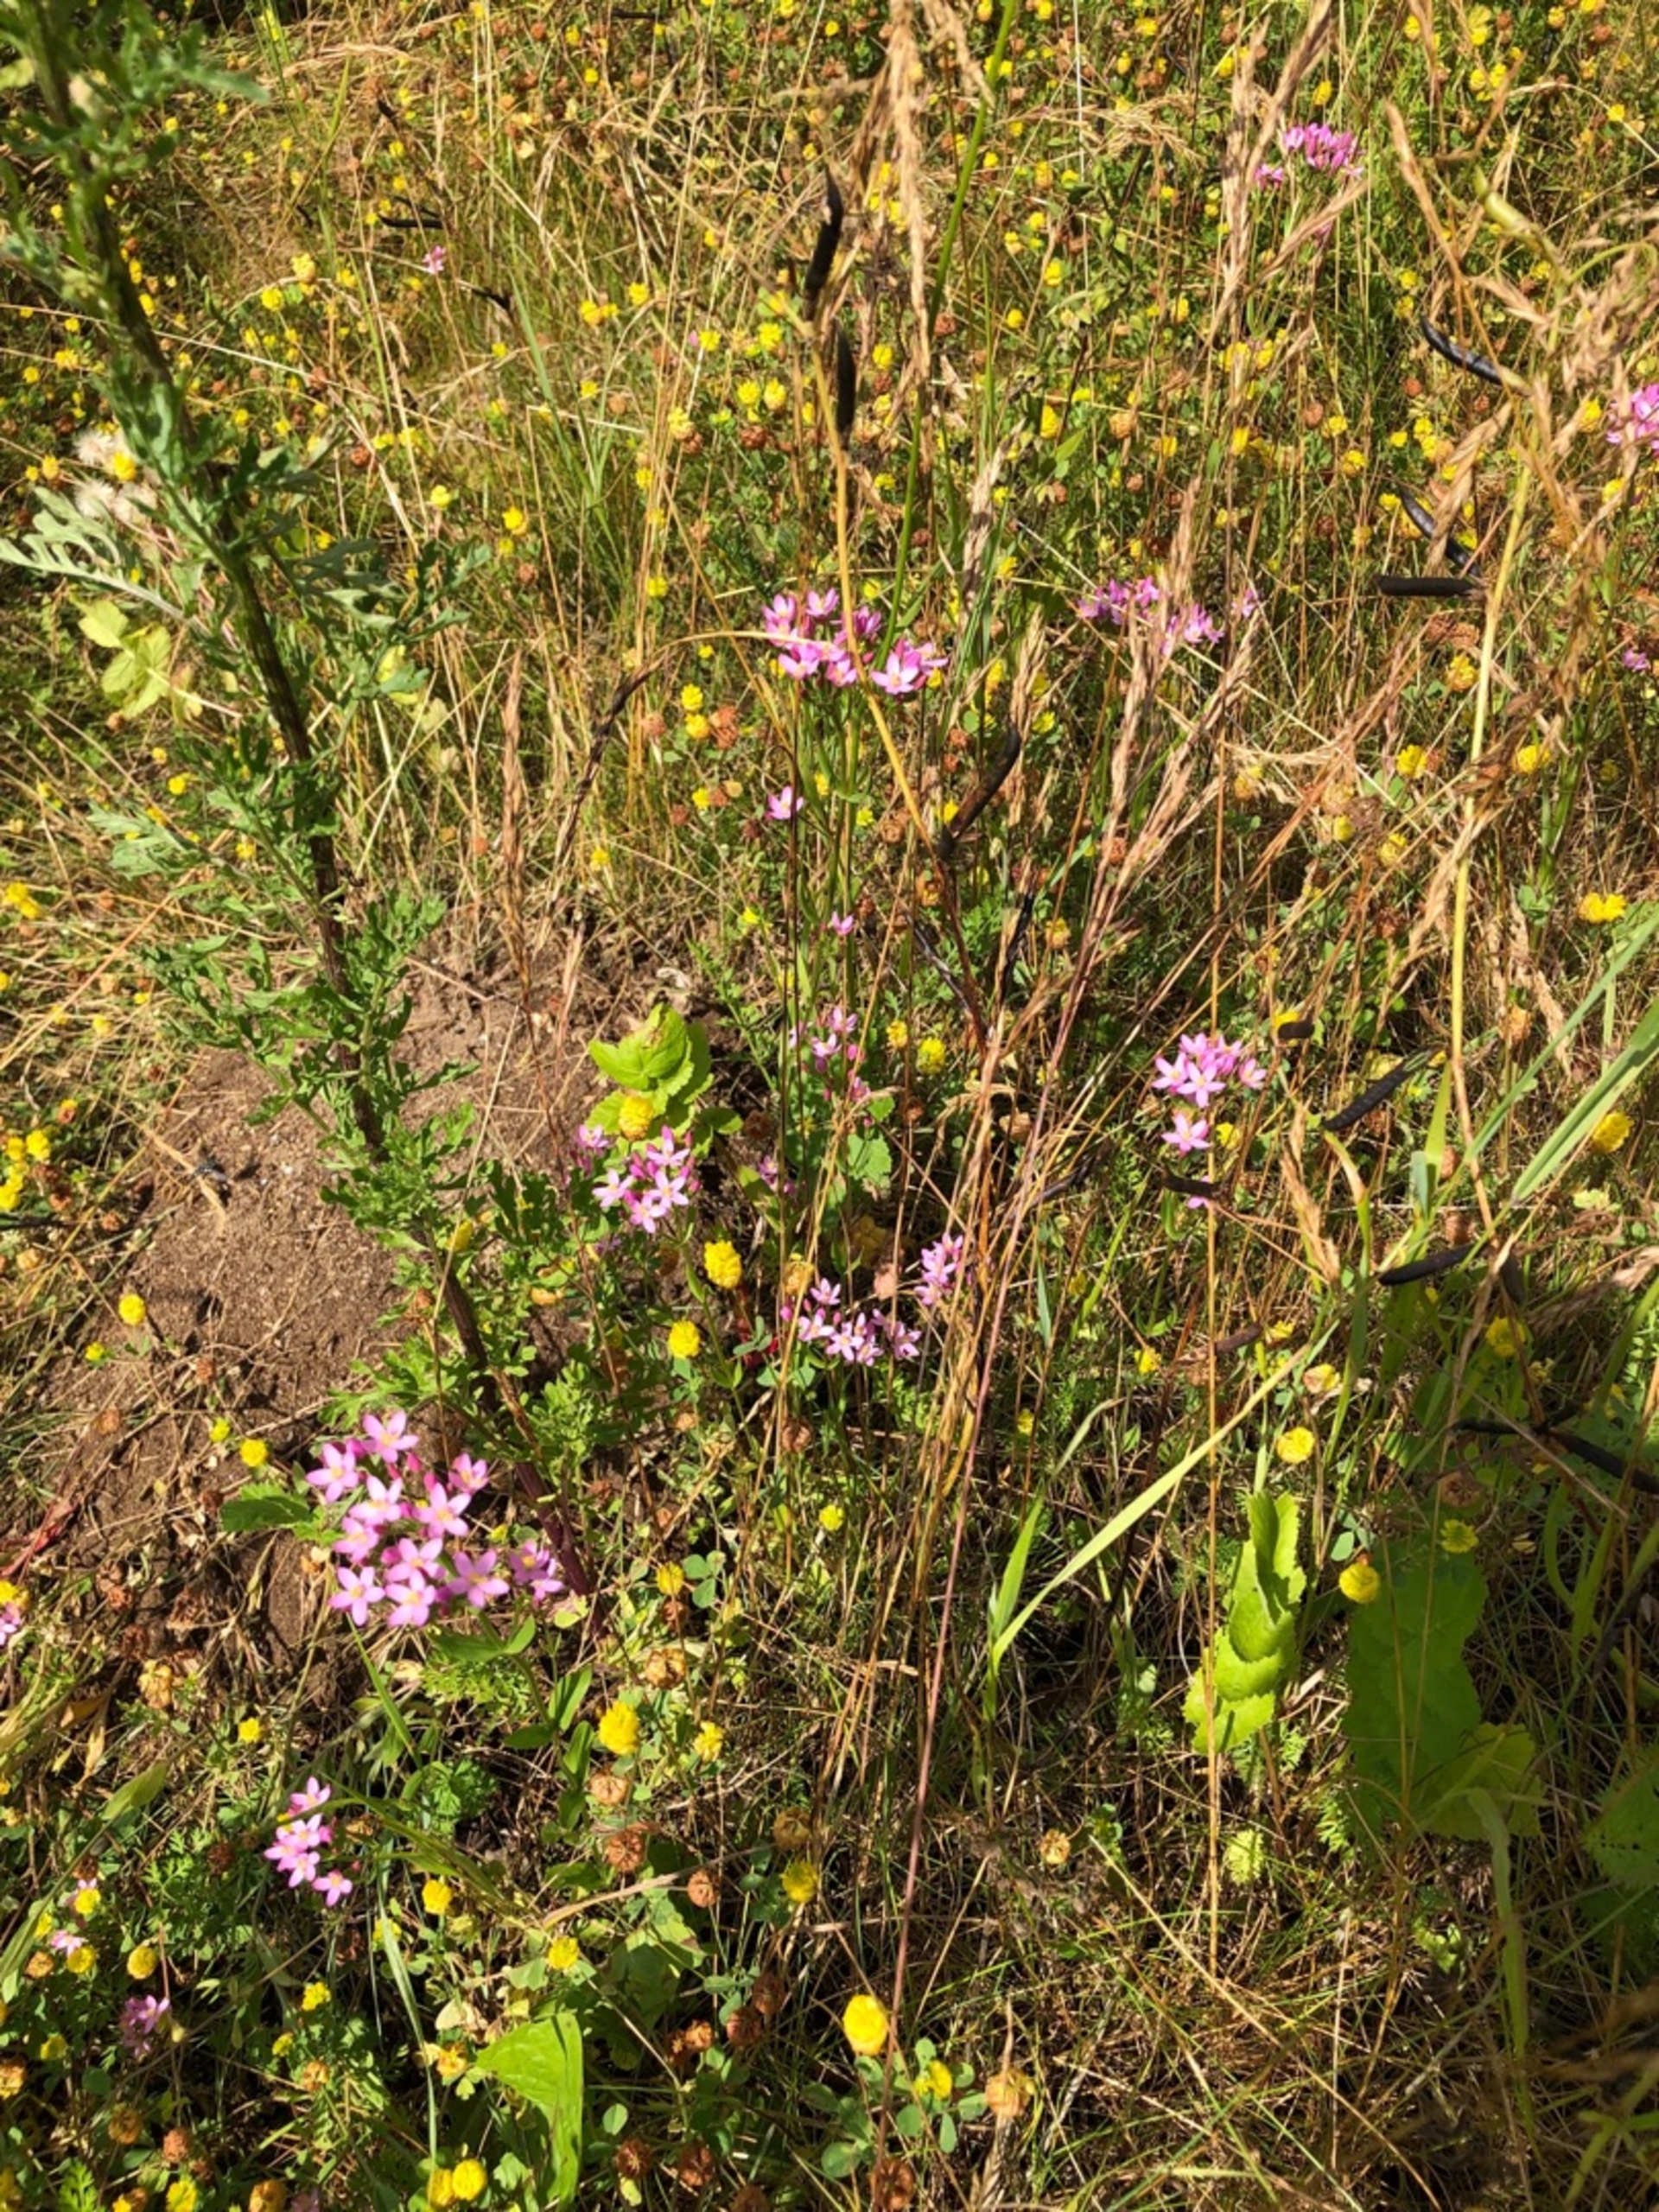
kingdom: Plantae
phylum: Tracheophyta
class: Magnoliopsida
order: Gentianales
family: Gentianaceae
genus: Centaurium
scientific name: Centaurium erythraea
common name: Mark-tusindgylden
